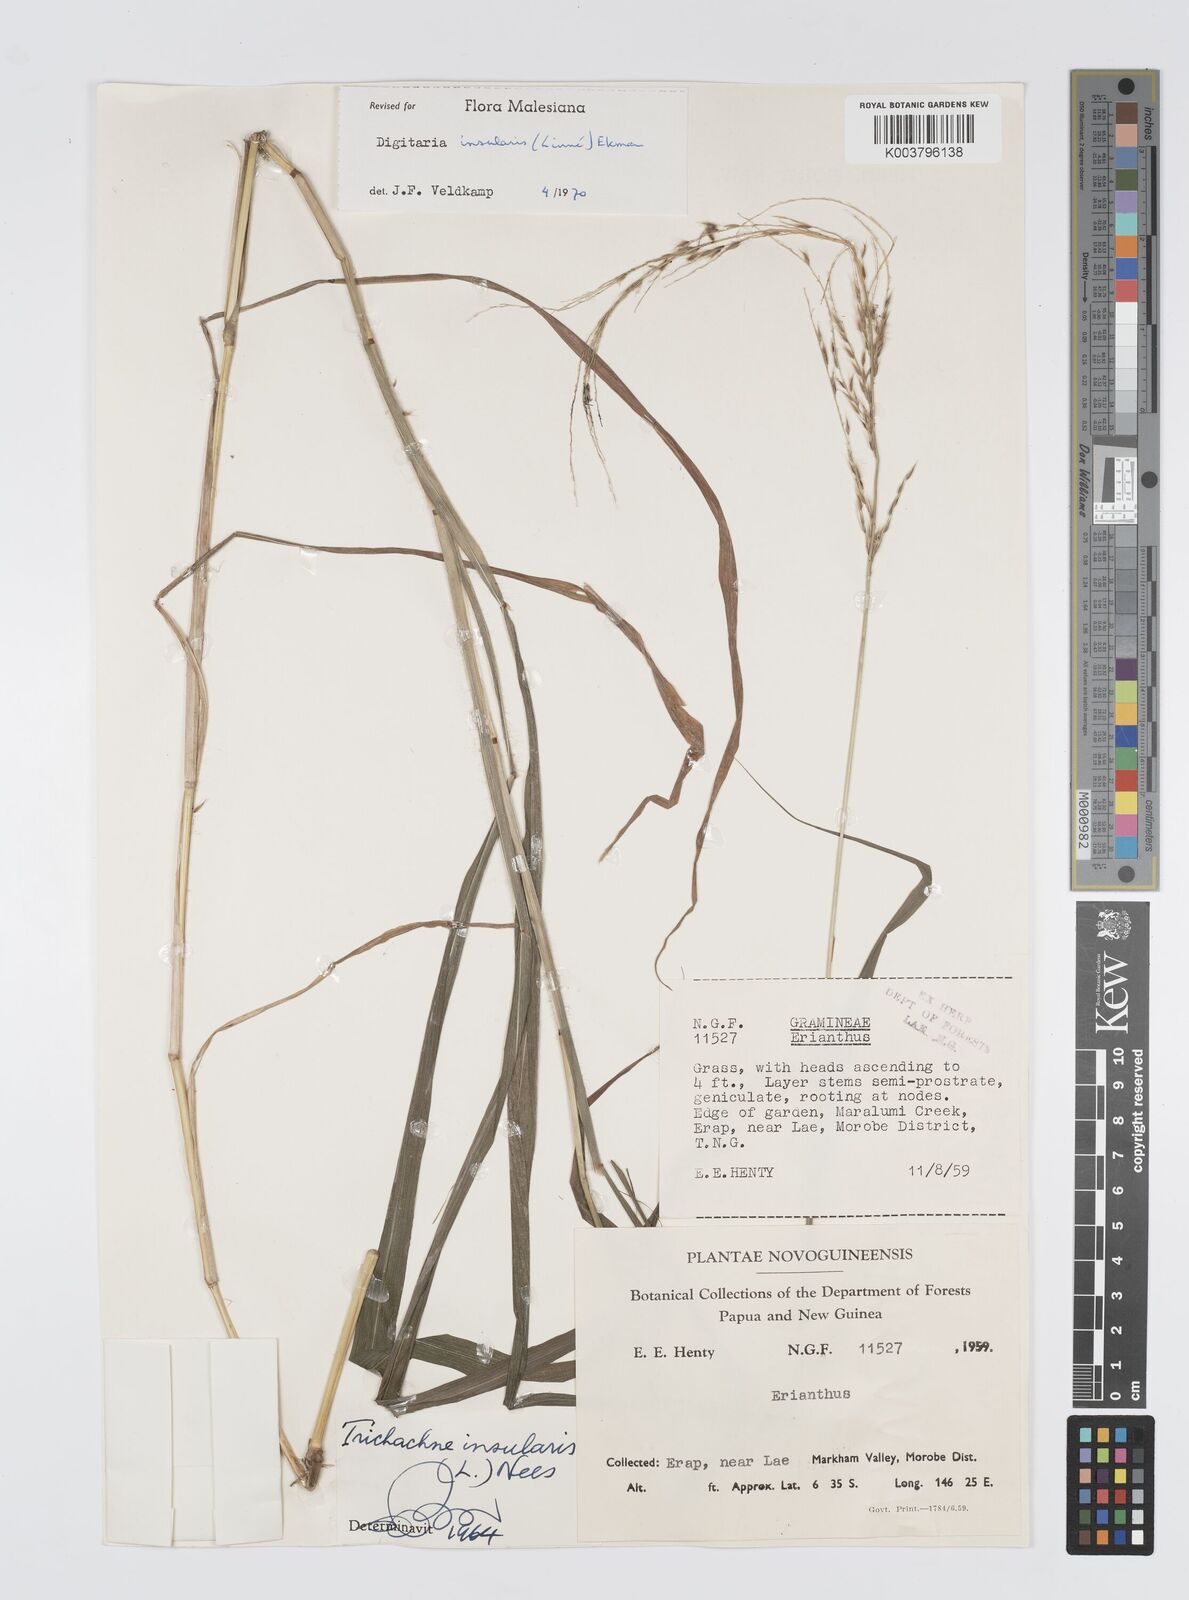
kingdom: Plantae
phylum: Tracheophyta
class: Liliopsida
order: Poales
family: Poaceae
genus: Digitaria
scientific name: Digitaria insularis
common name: Sourgrass
